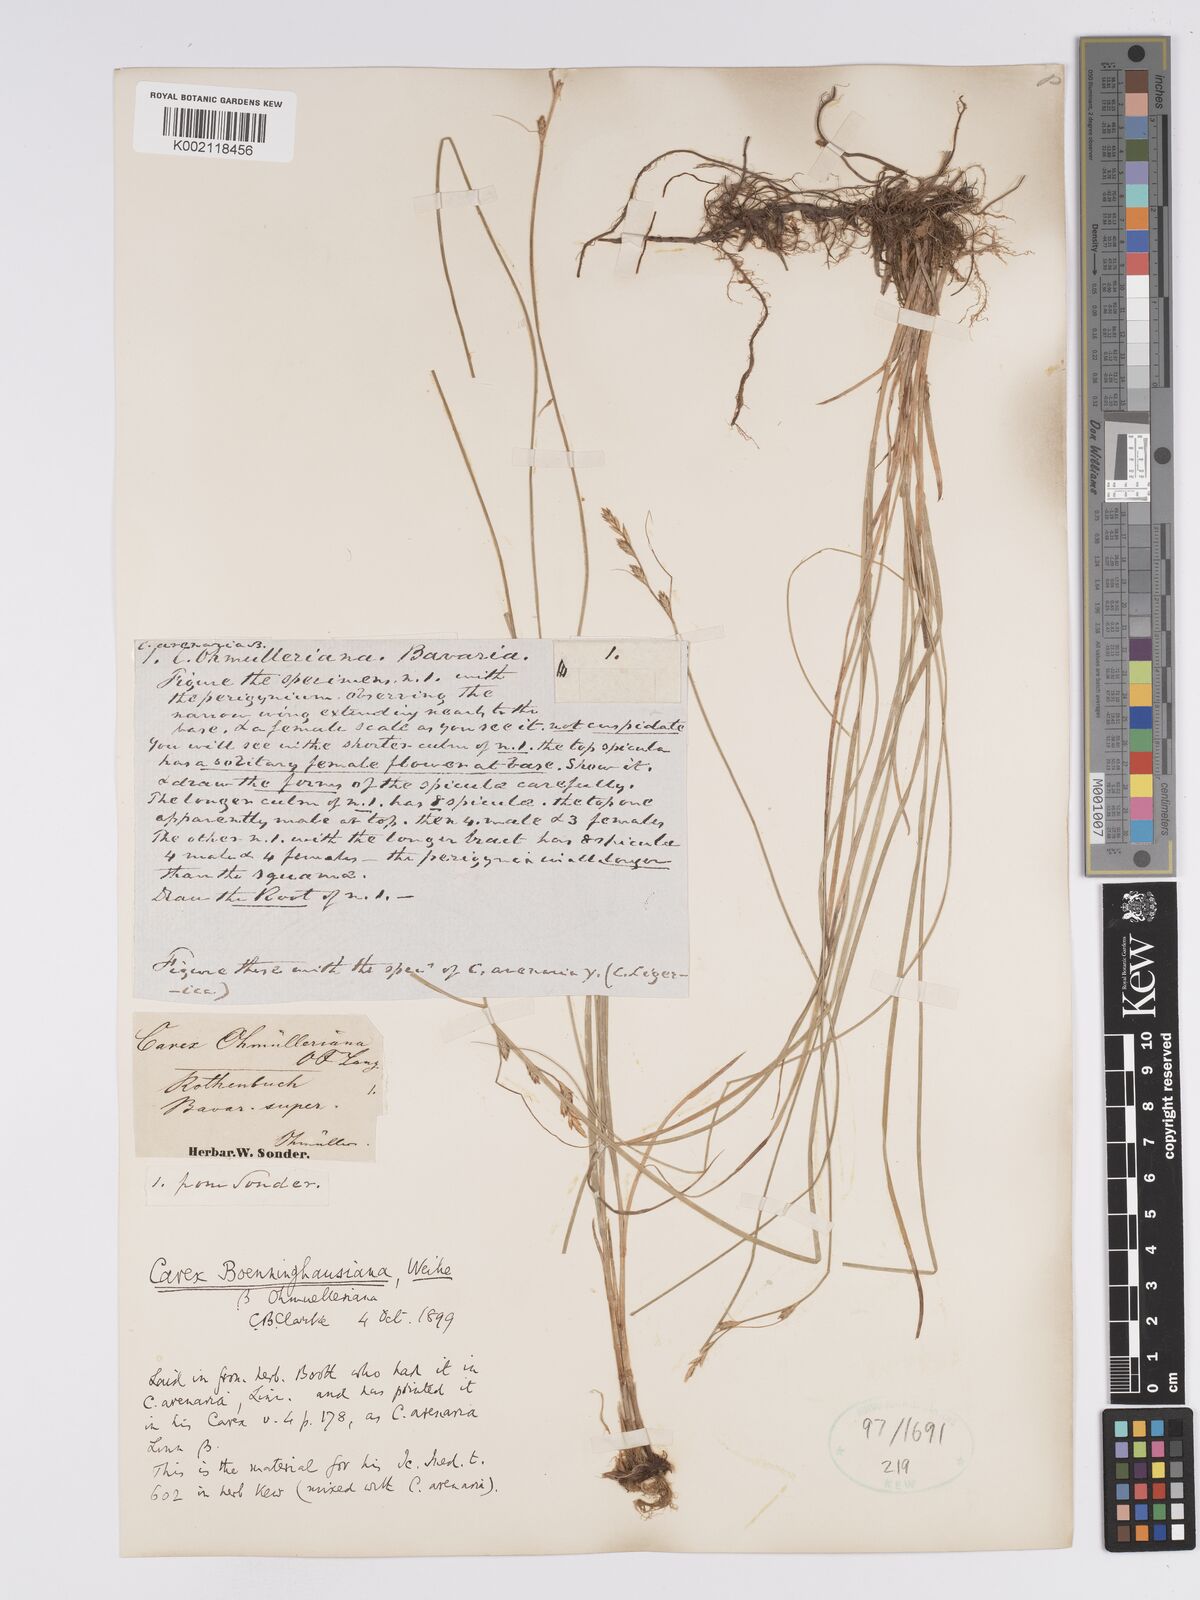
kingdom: Plantae
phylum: Tracheophyta
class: Liliopsida
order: Poales
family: Cyperaceae
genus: Carex
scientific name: Carex boenninghausiana
